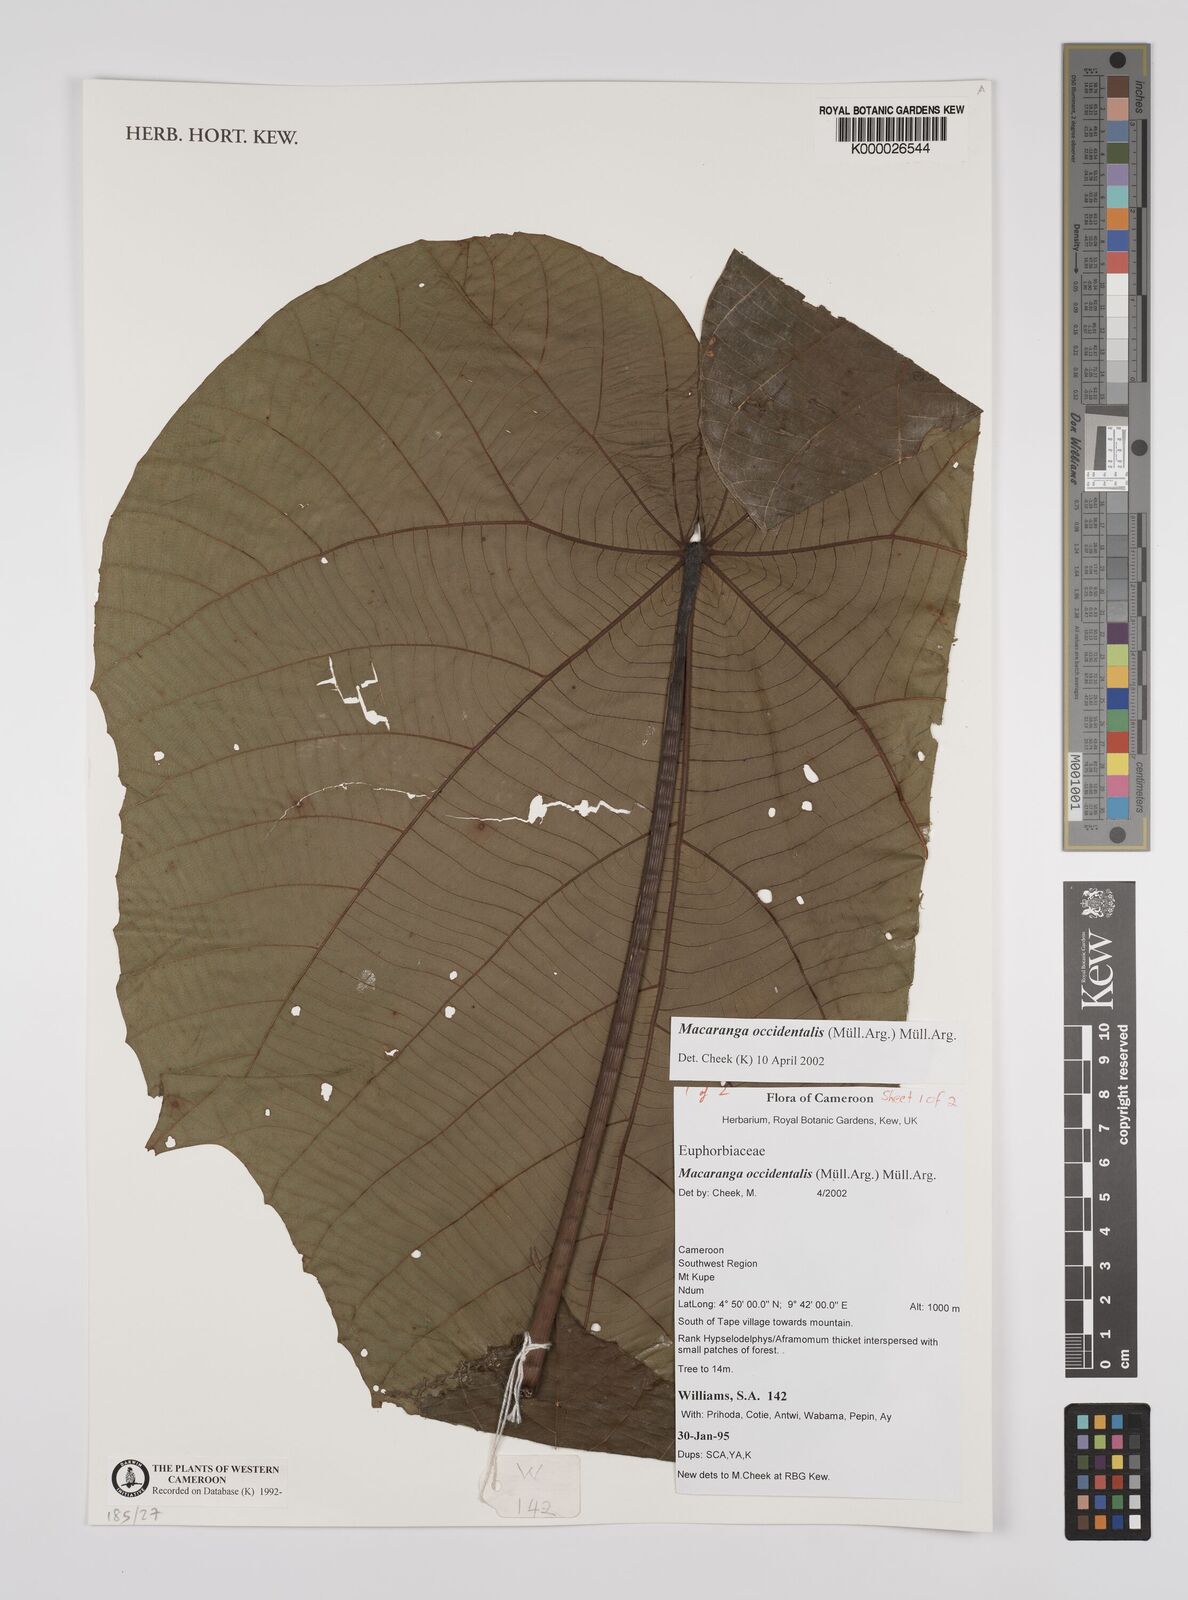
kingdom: Plantae
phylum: Tracheophyta
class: Magnoliopsida
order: Malpighiales
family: Euphorbiaceae
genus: Macaranga
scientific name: Macaranga
